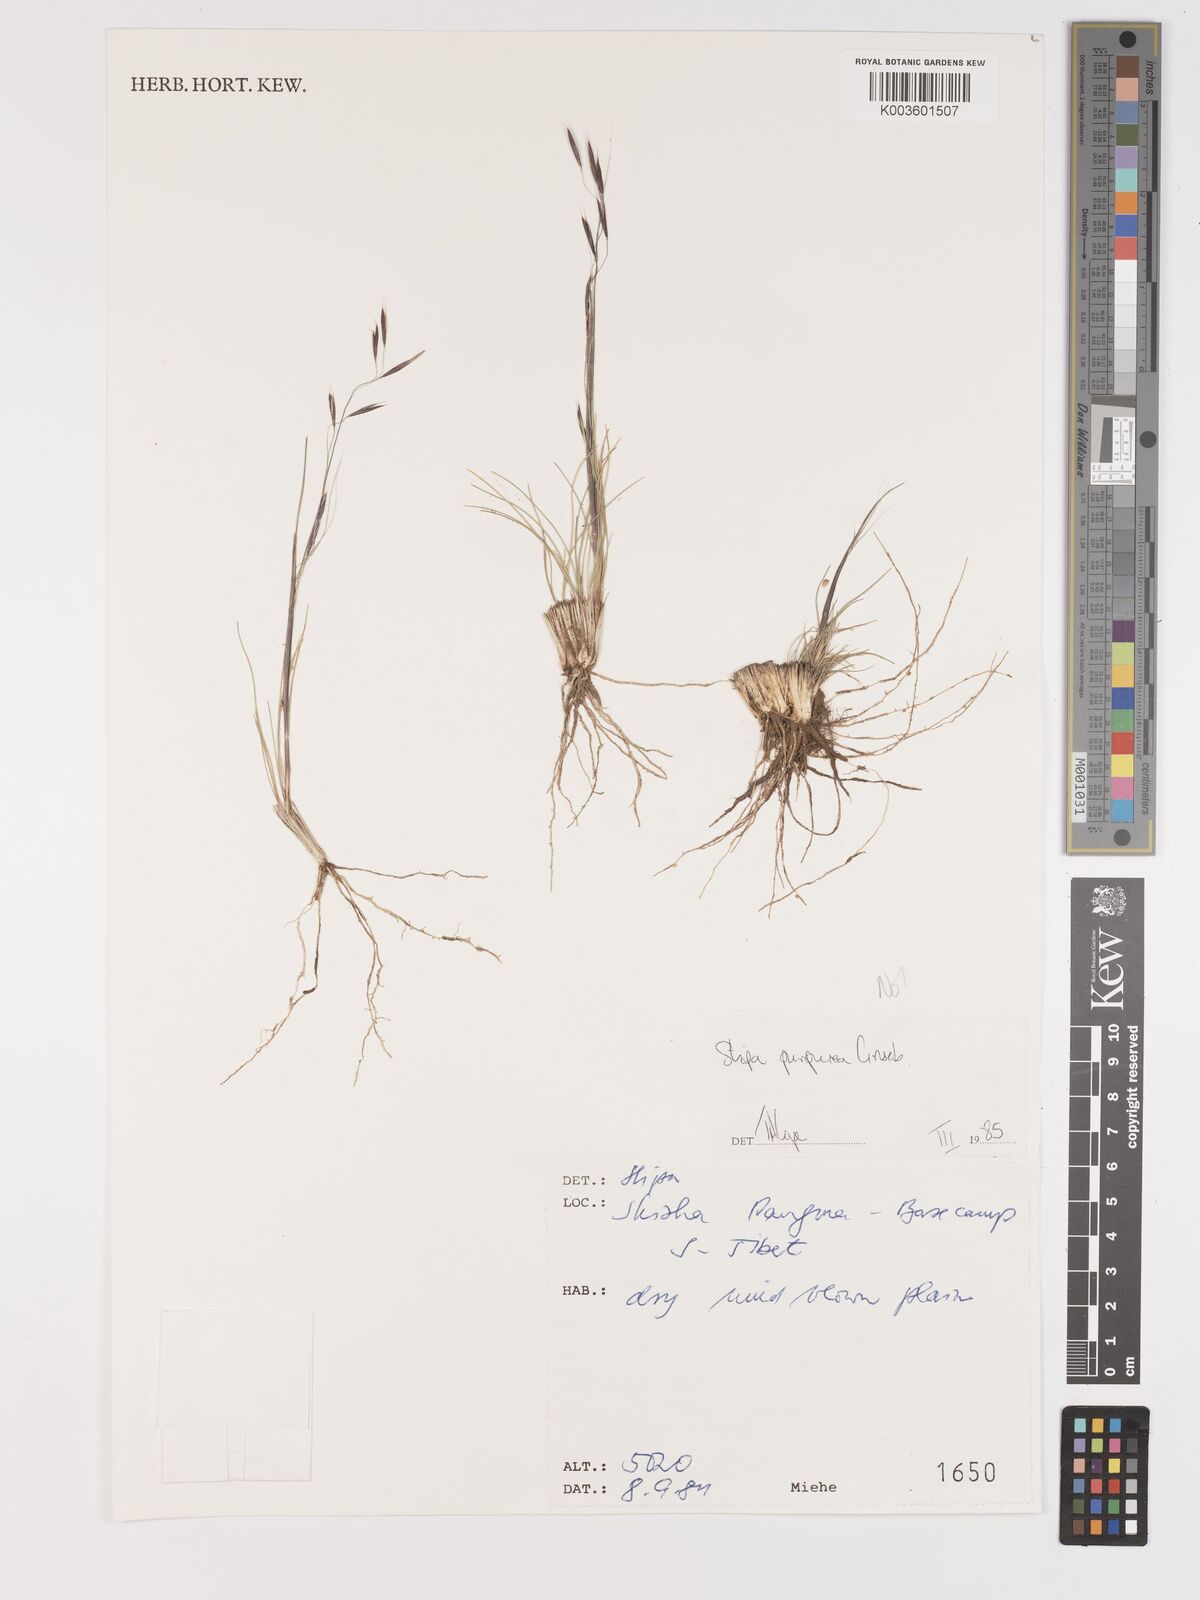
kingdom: Plantae
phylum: Tracheophyta
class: Liliopsida
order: Poales
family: Poaceae
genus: Stipa
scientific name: Stipa
